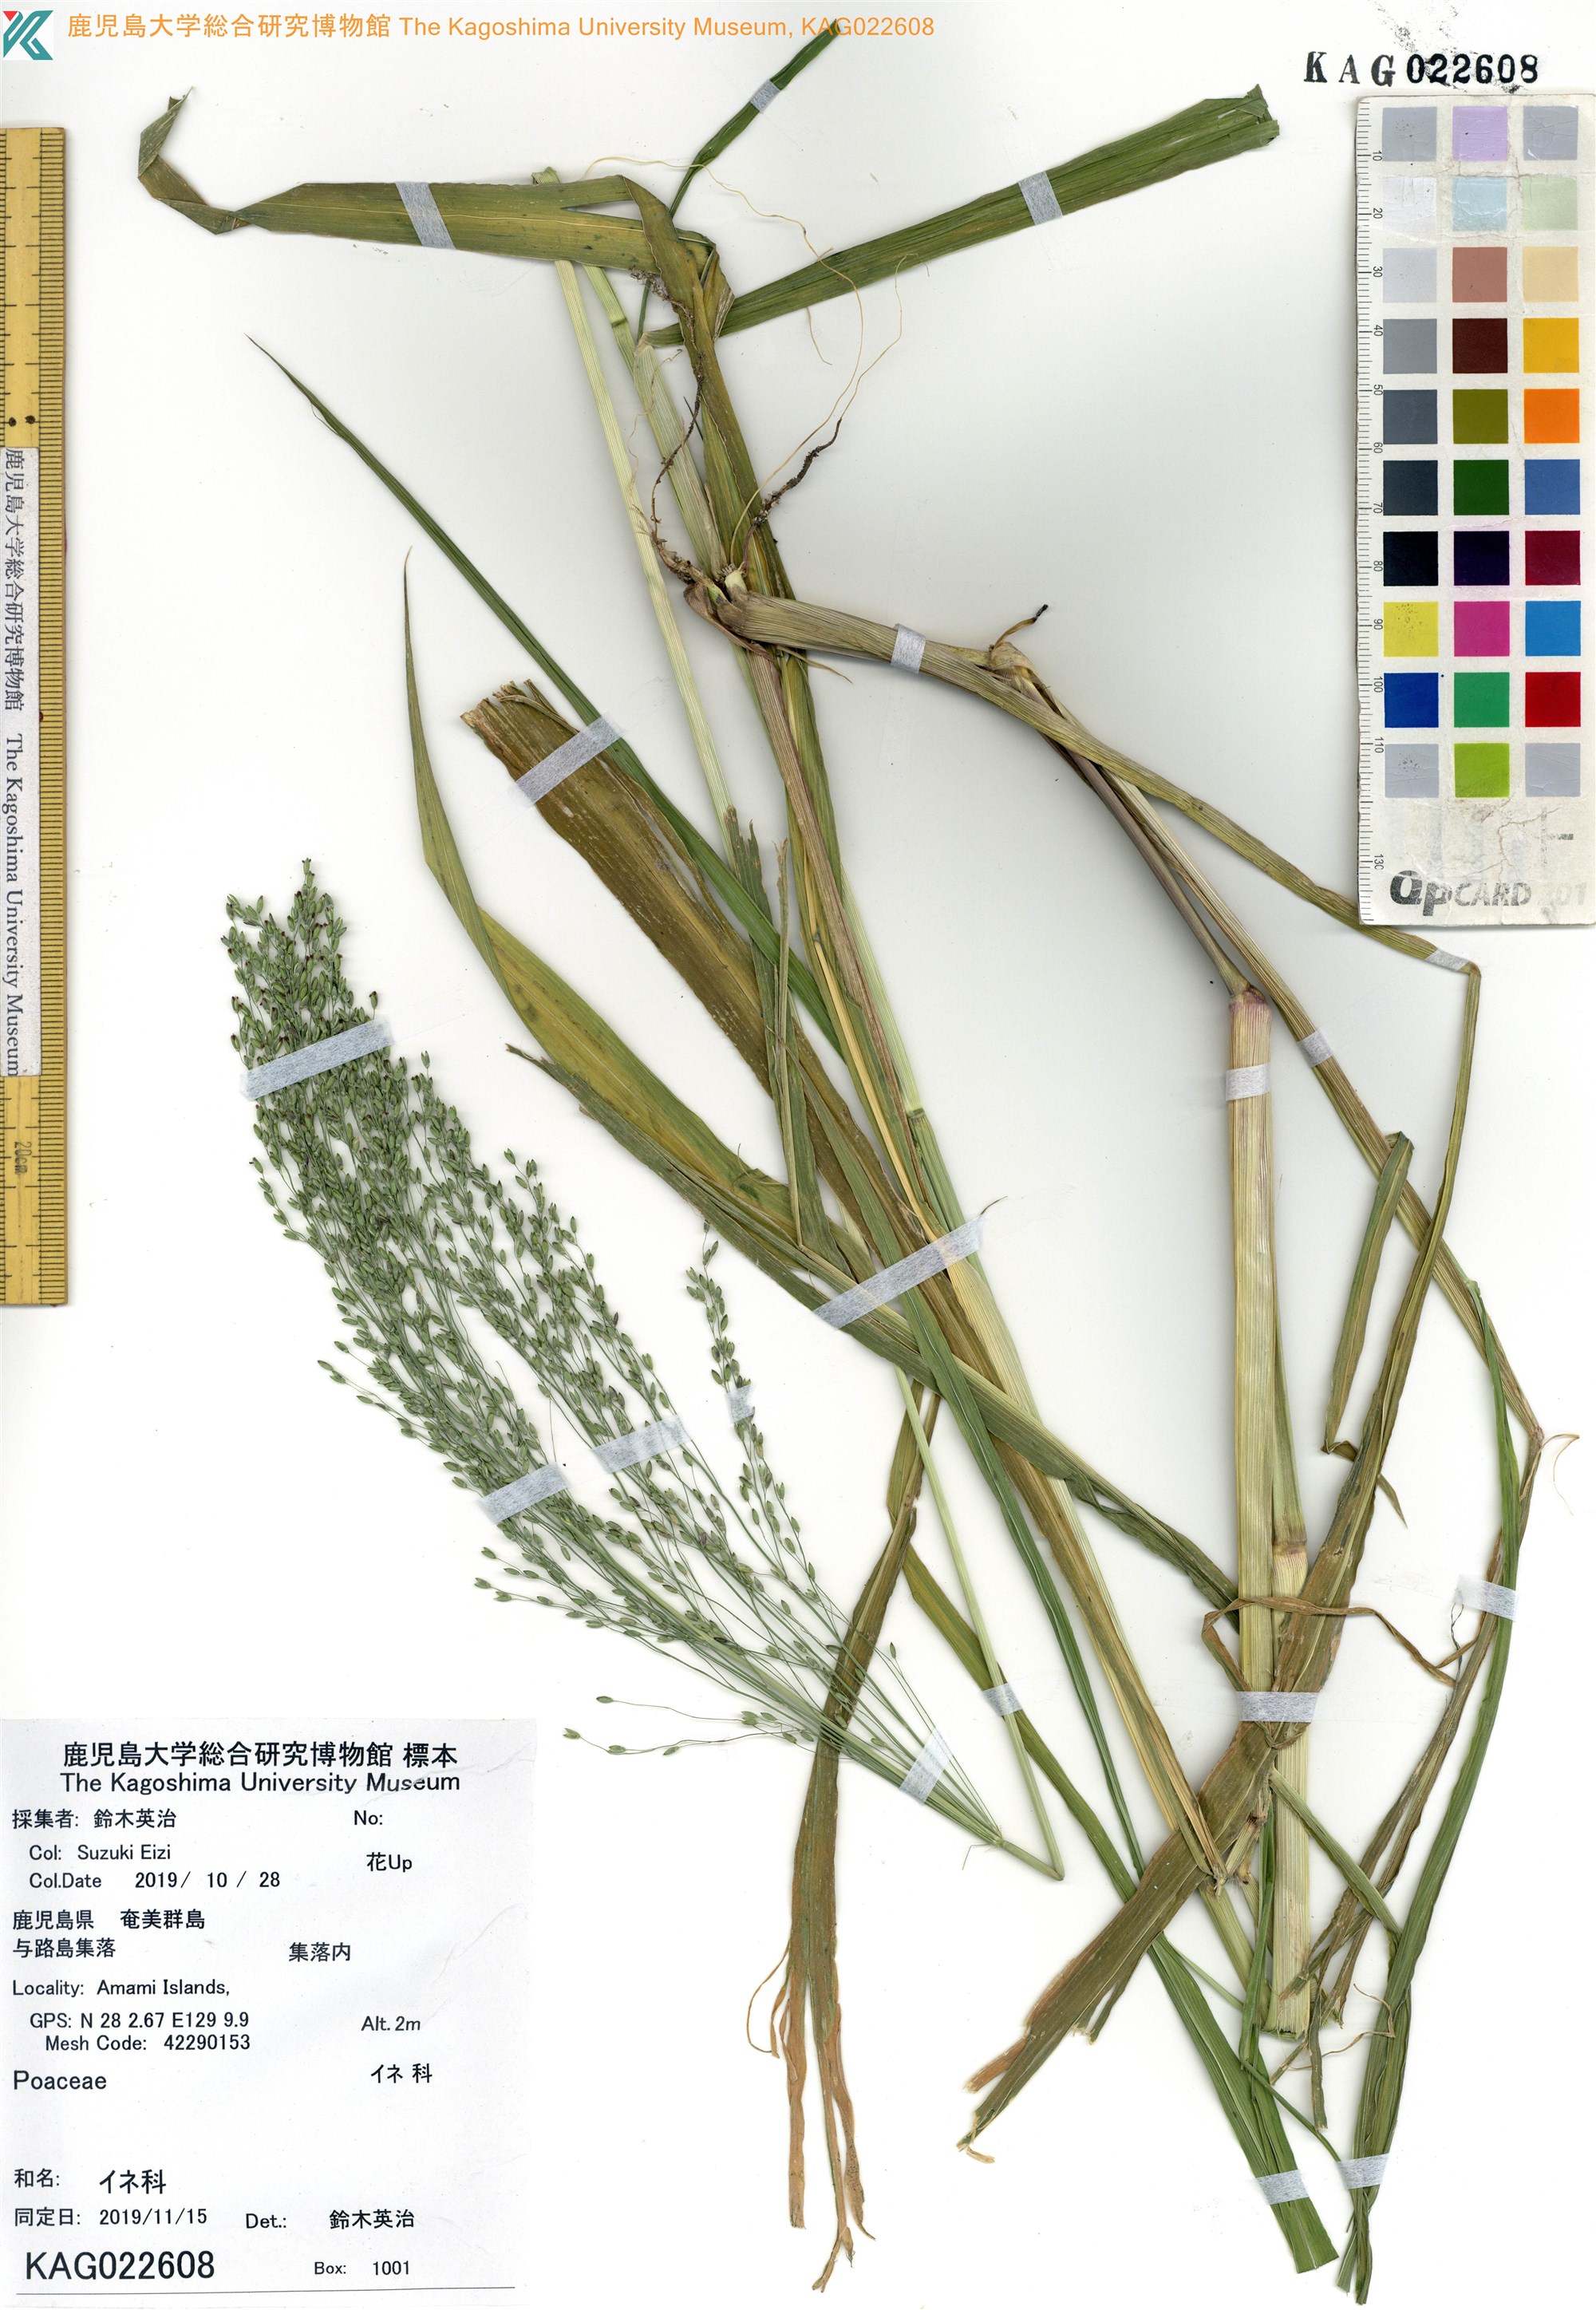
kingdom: Plantae
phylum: Tracheophyta
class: Liliopsida
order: Poales
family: Poaceae
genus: Panicum
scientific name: Panicum bisulcatum
